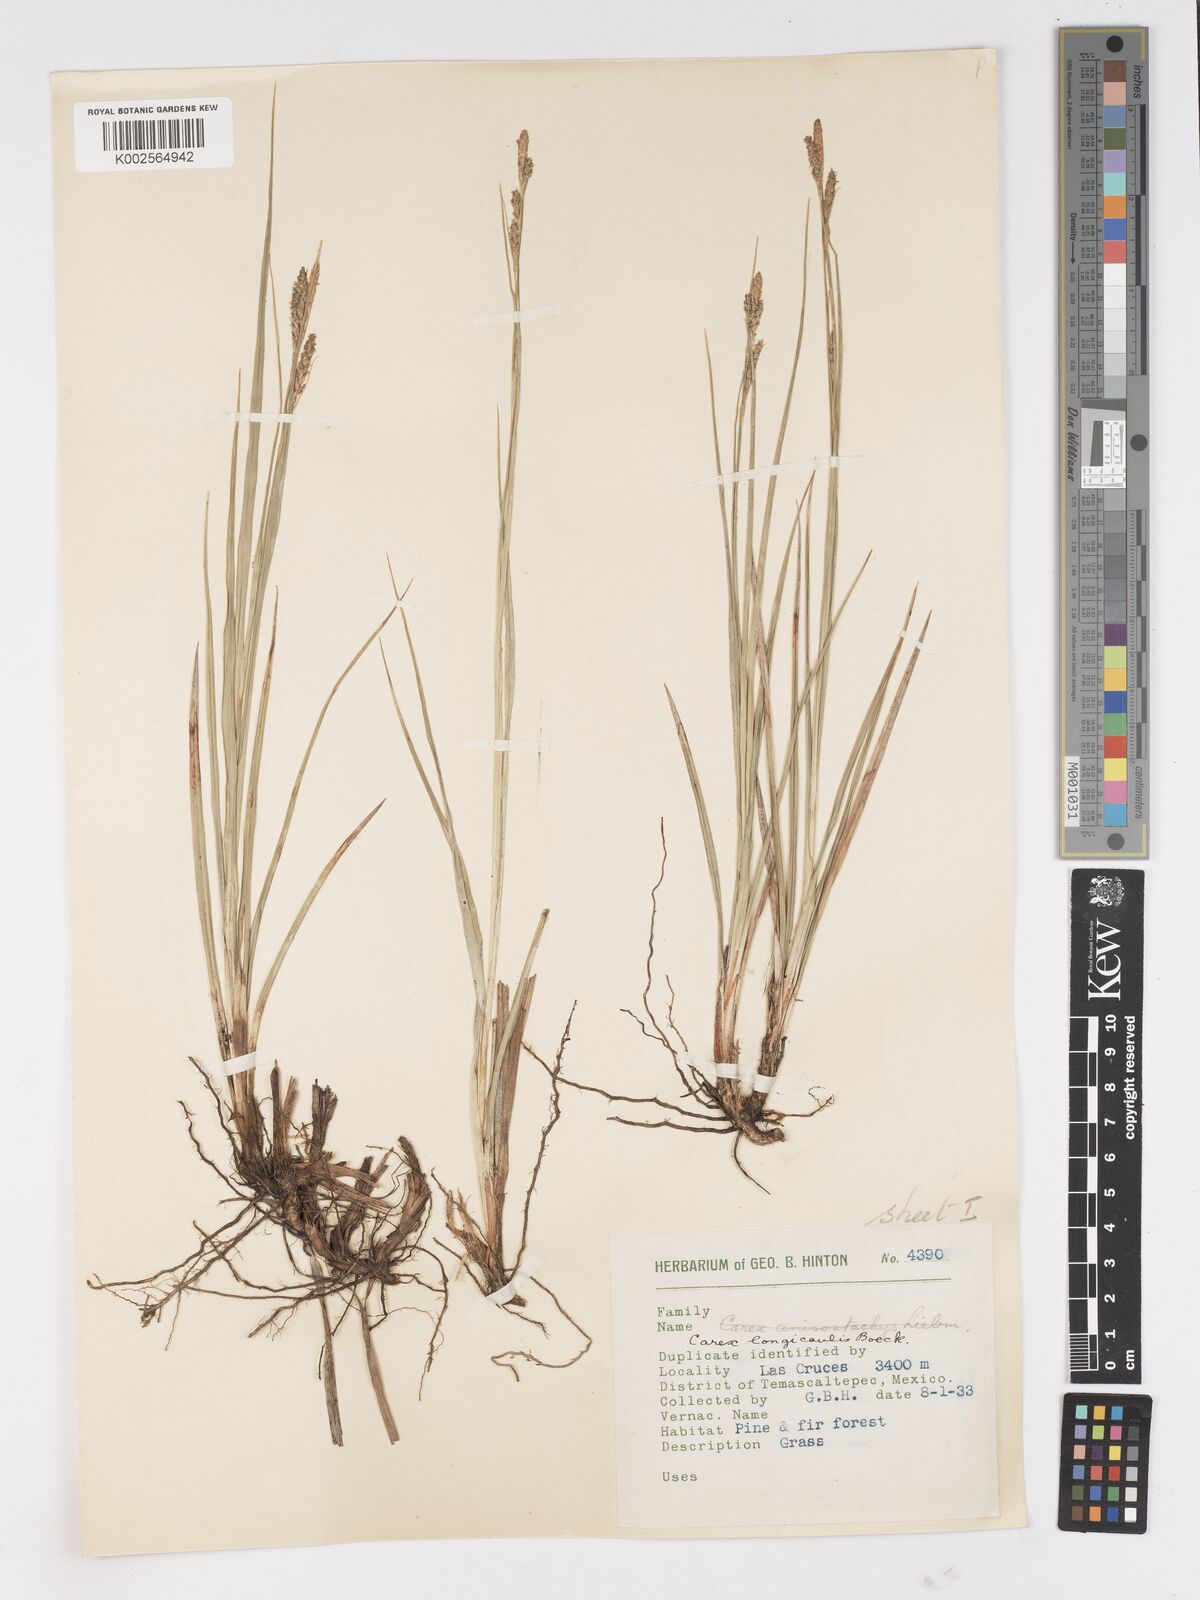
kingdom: Plantae
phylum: Tracheophyta
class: Liliopsida
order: Poales
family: Cyperaceae
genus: Carex
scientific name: Carex longicaulis
